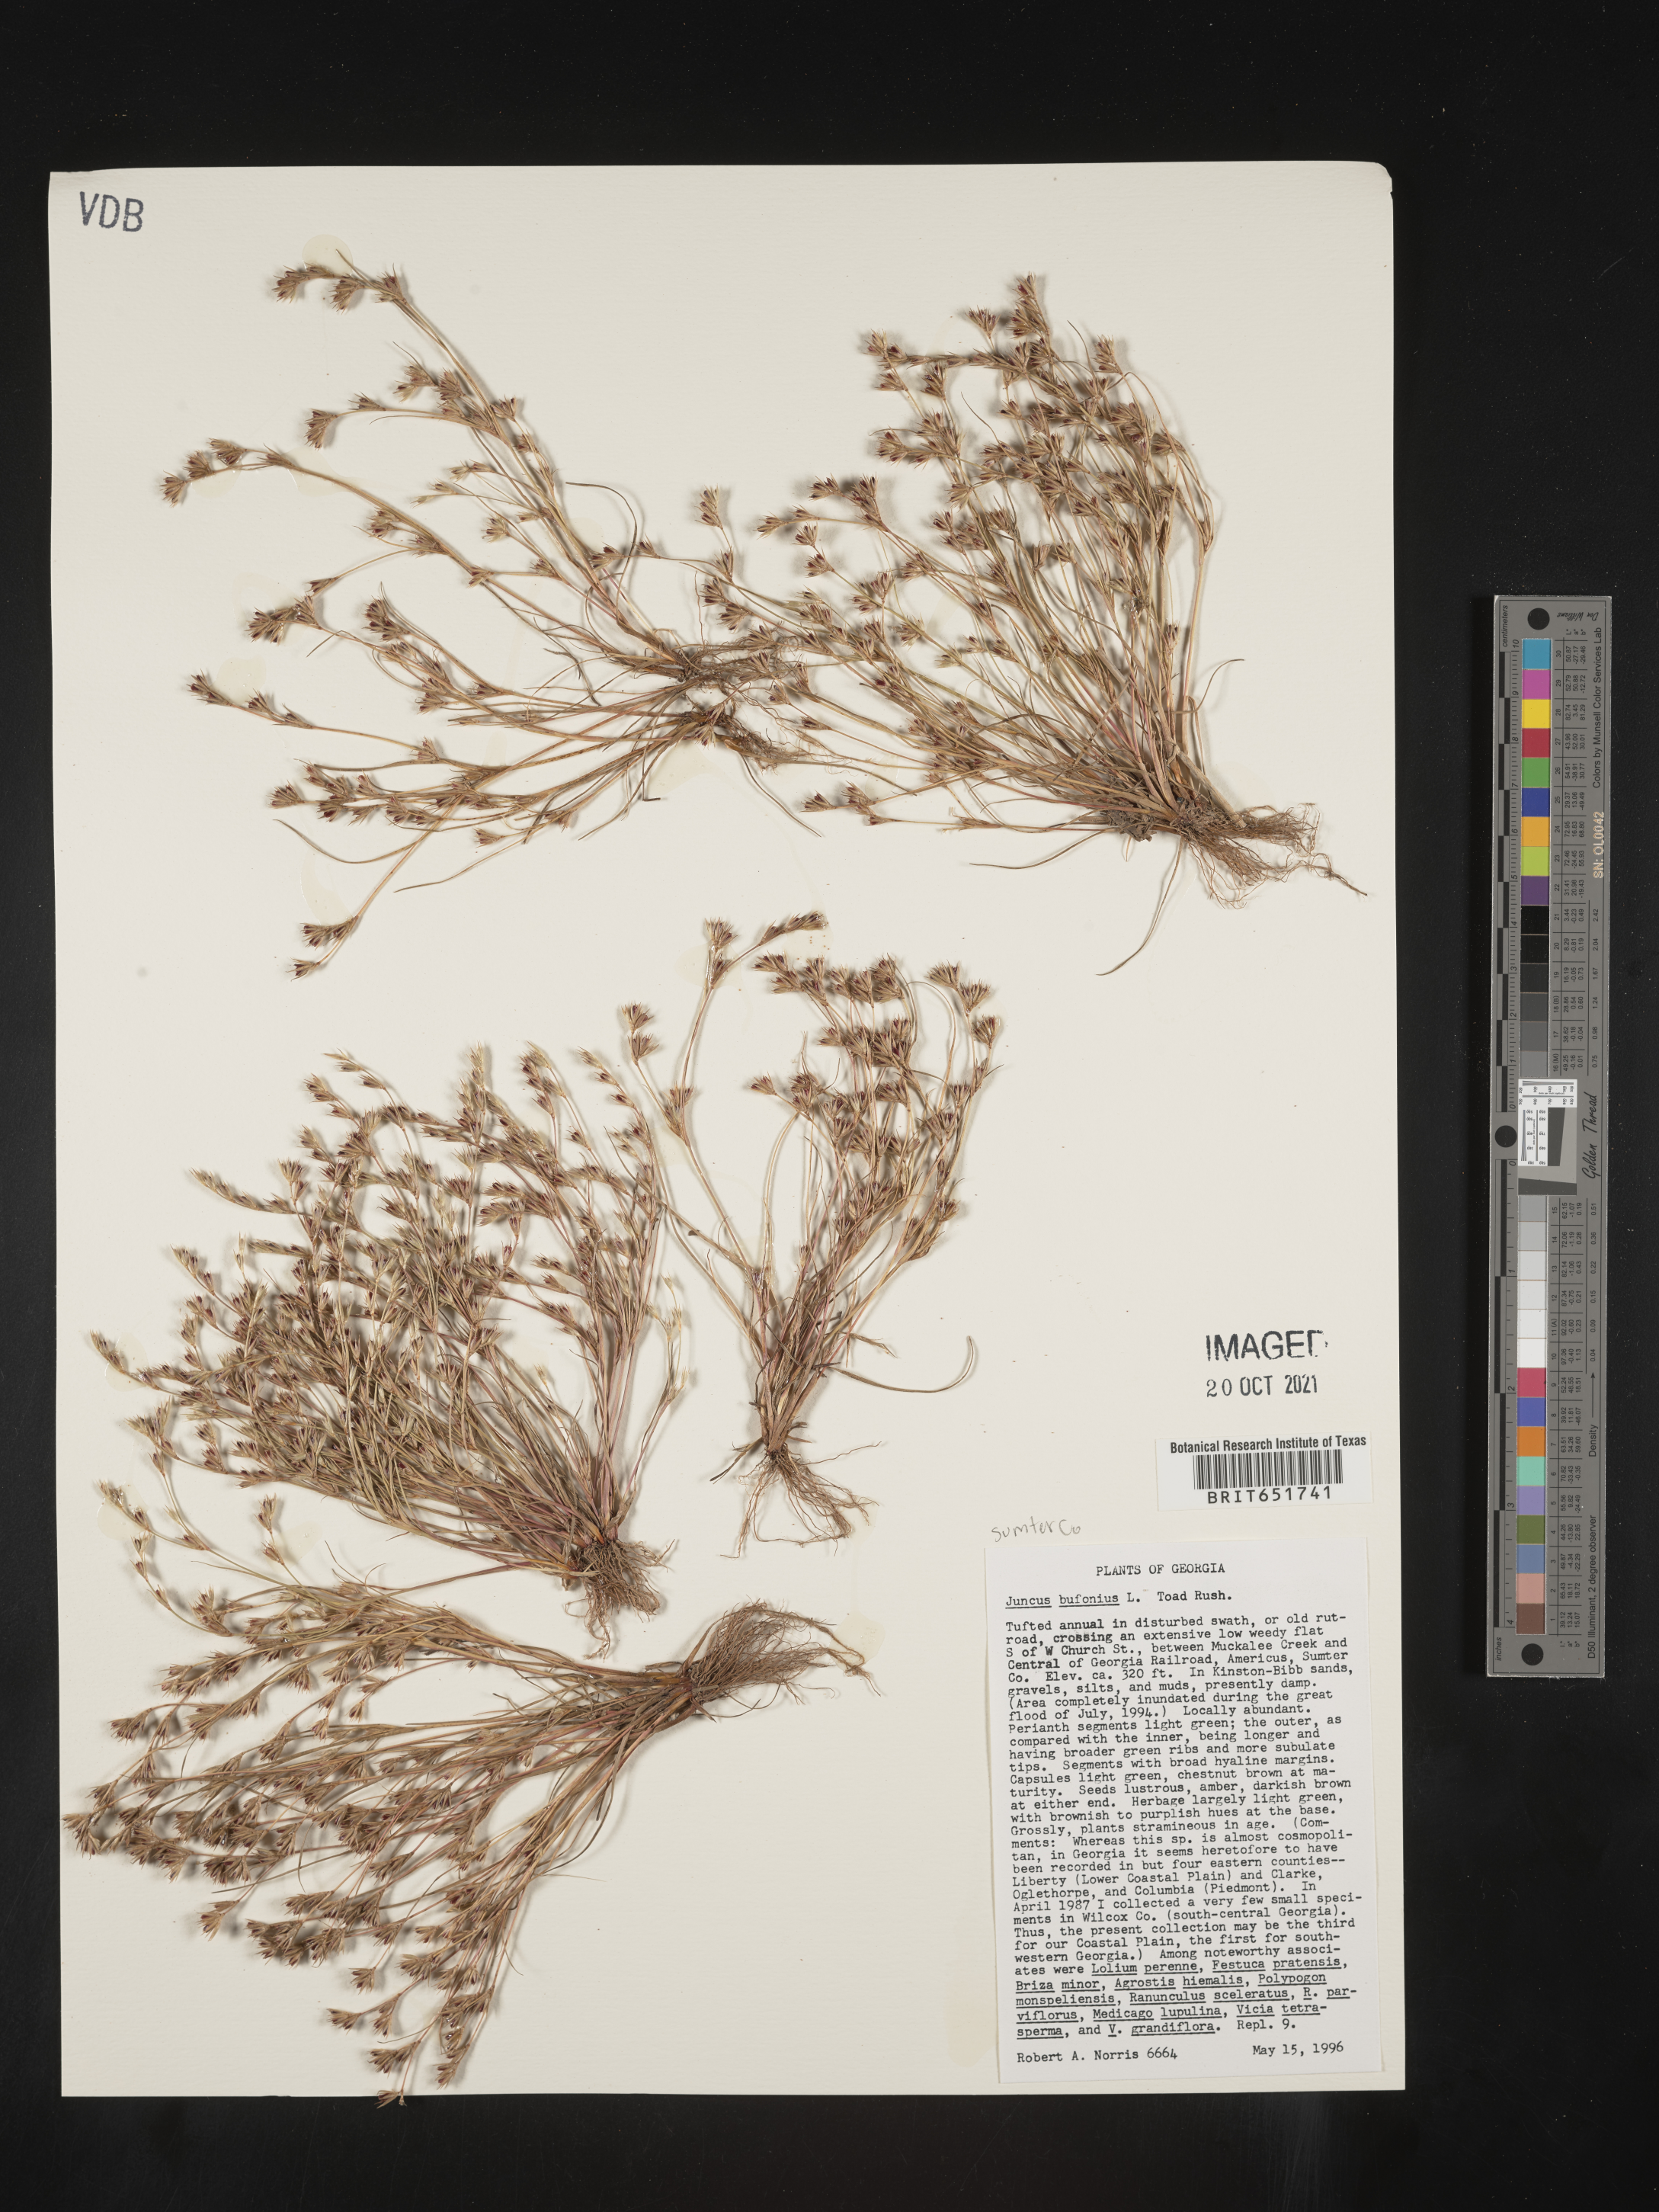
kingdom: Plantae
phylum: Tracheophyta
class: Liliopsida
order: Poales
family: Juncaceae
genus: Juncus
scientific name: Juncus bufonius
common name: Toad rush
